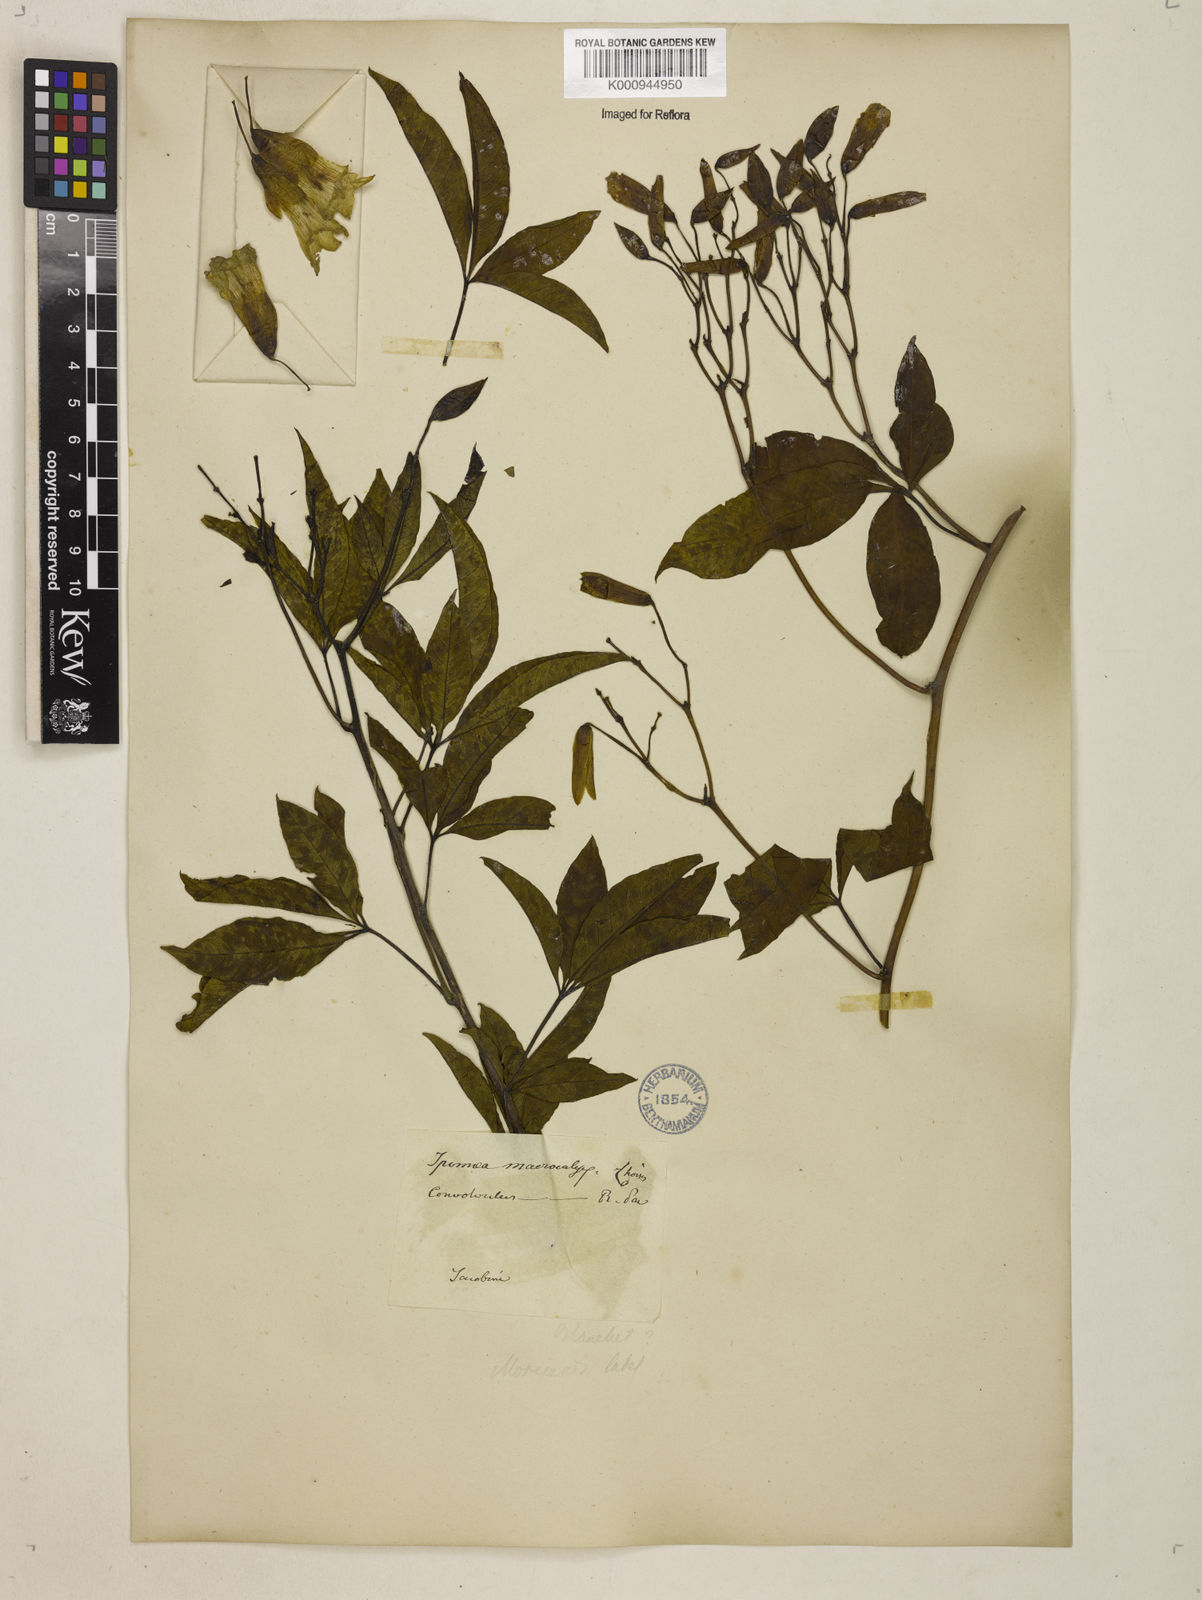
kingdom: Plantae
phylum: Tracheophyta
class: Magnoliopsida
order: Solanales
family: Convolvulaceae
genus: Distimake
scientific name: Distimake macrocalyx
